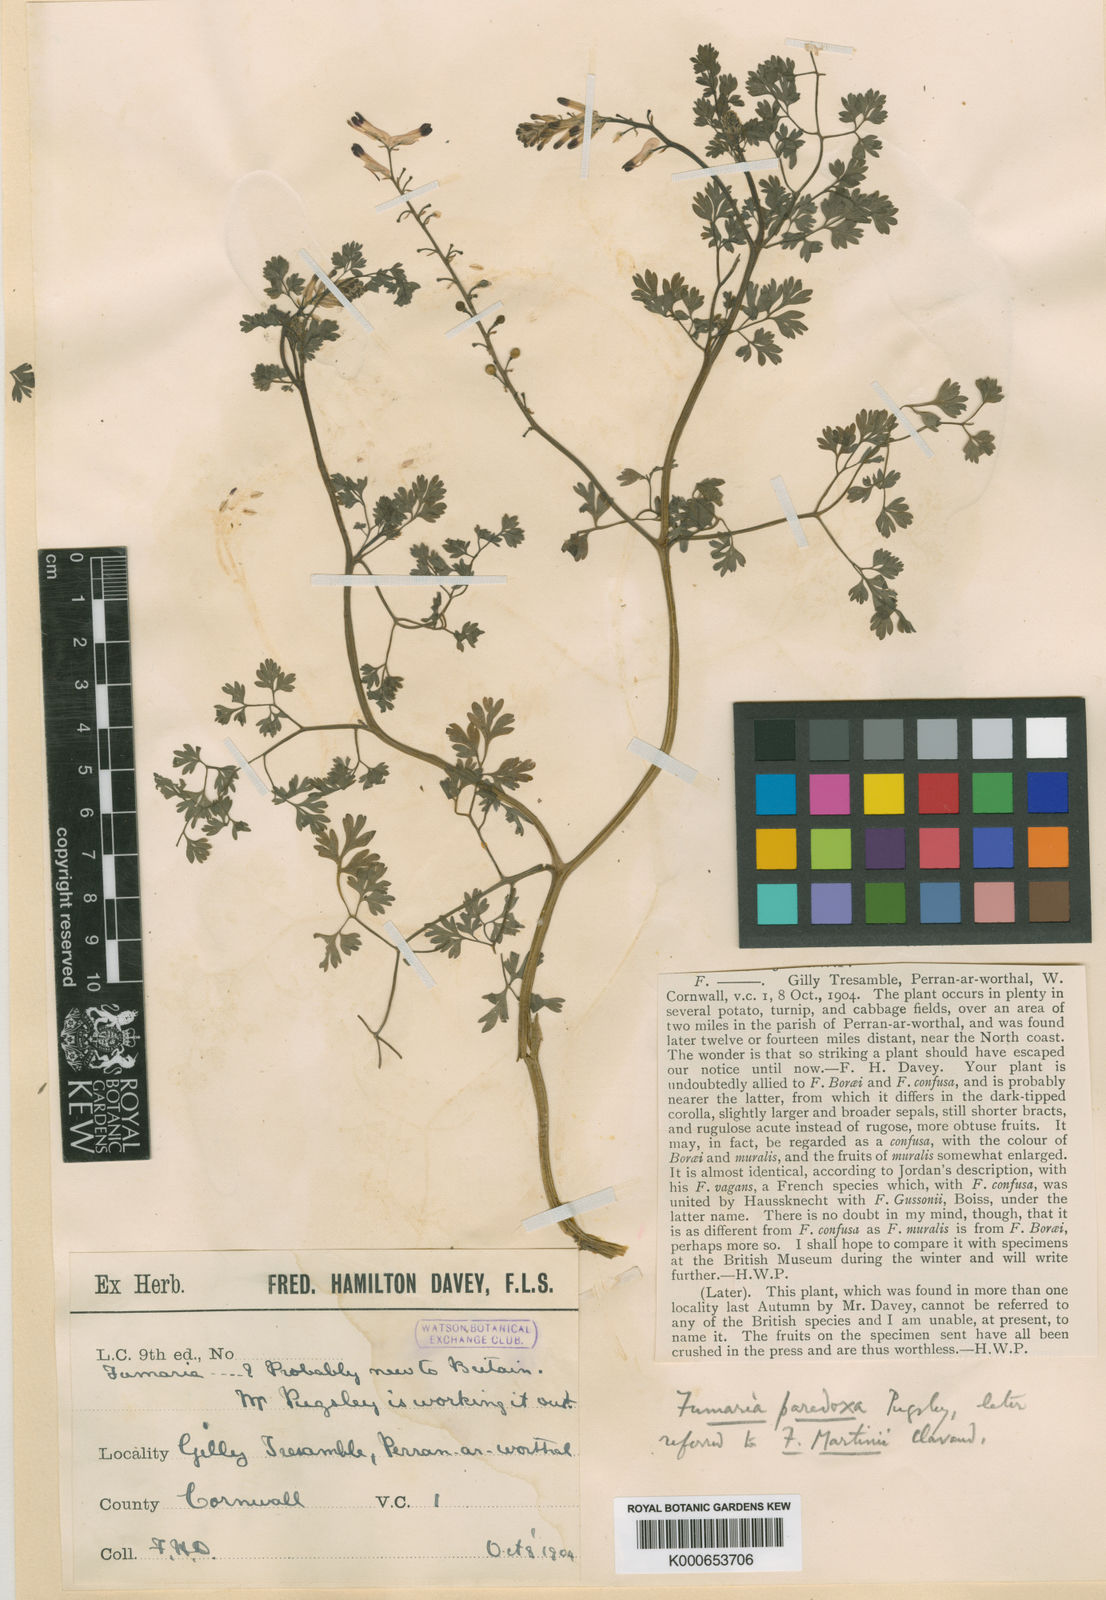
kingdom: Plantae
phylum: Tracheophyta
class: Magnoliopsida
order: Ranunculales
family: Papaveraceae
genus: Fumaria
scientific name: Fumaria
